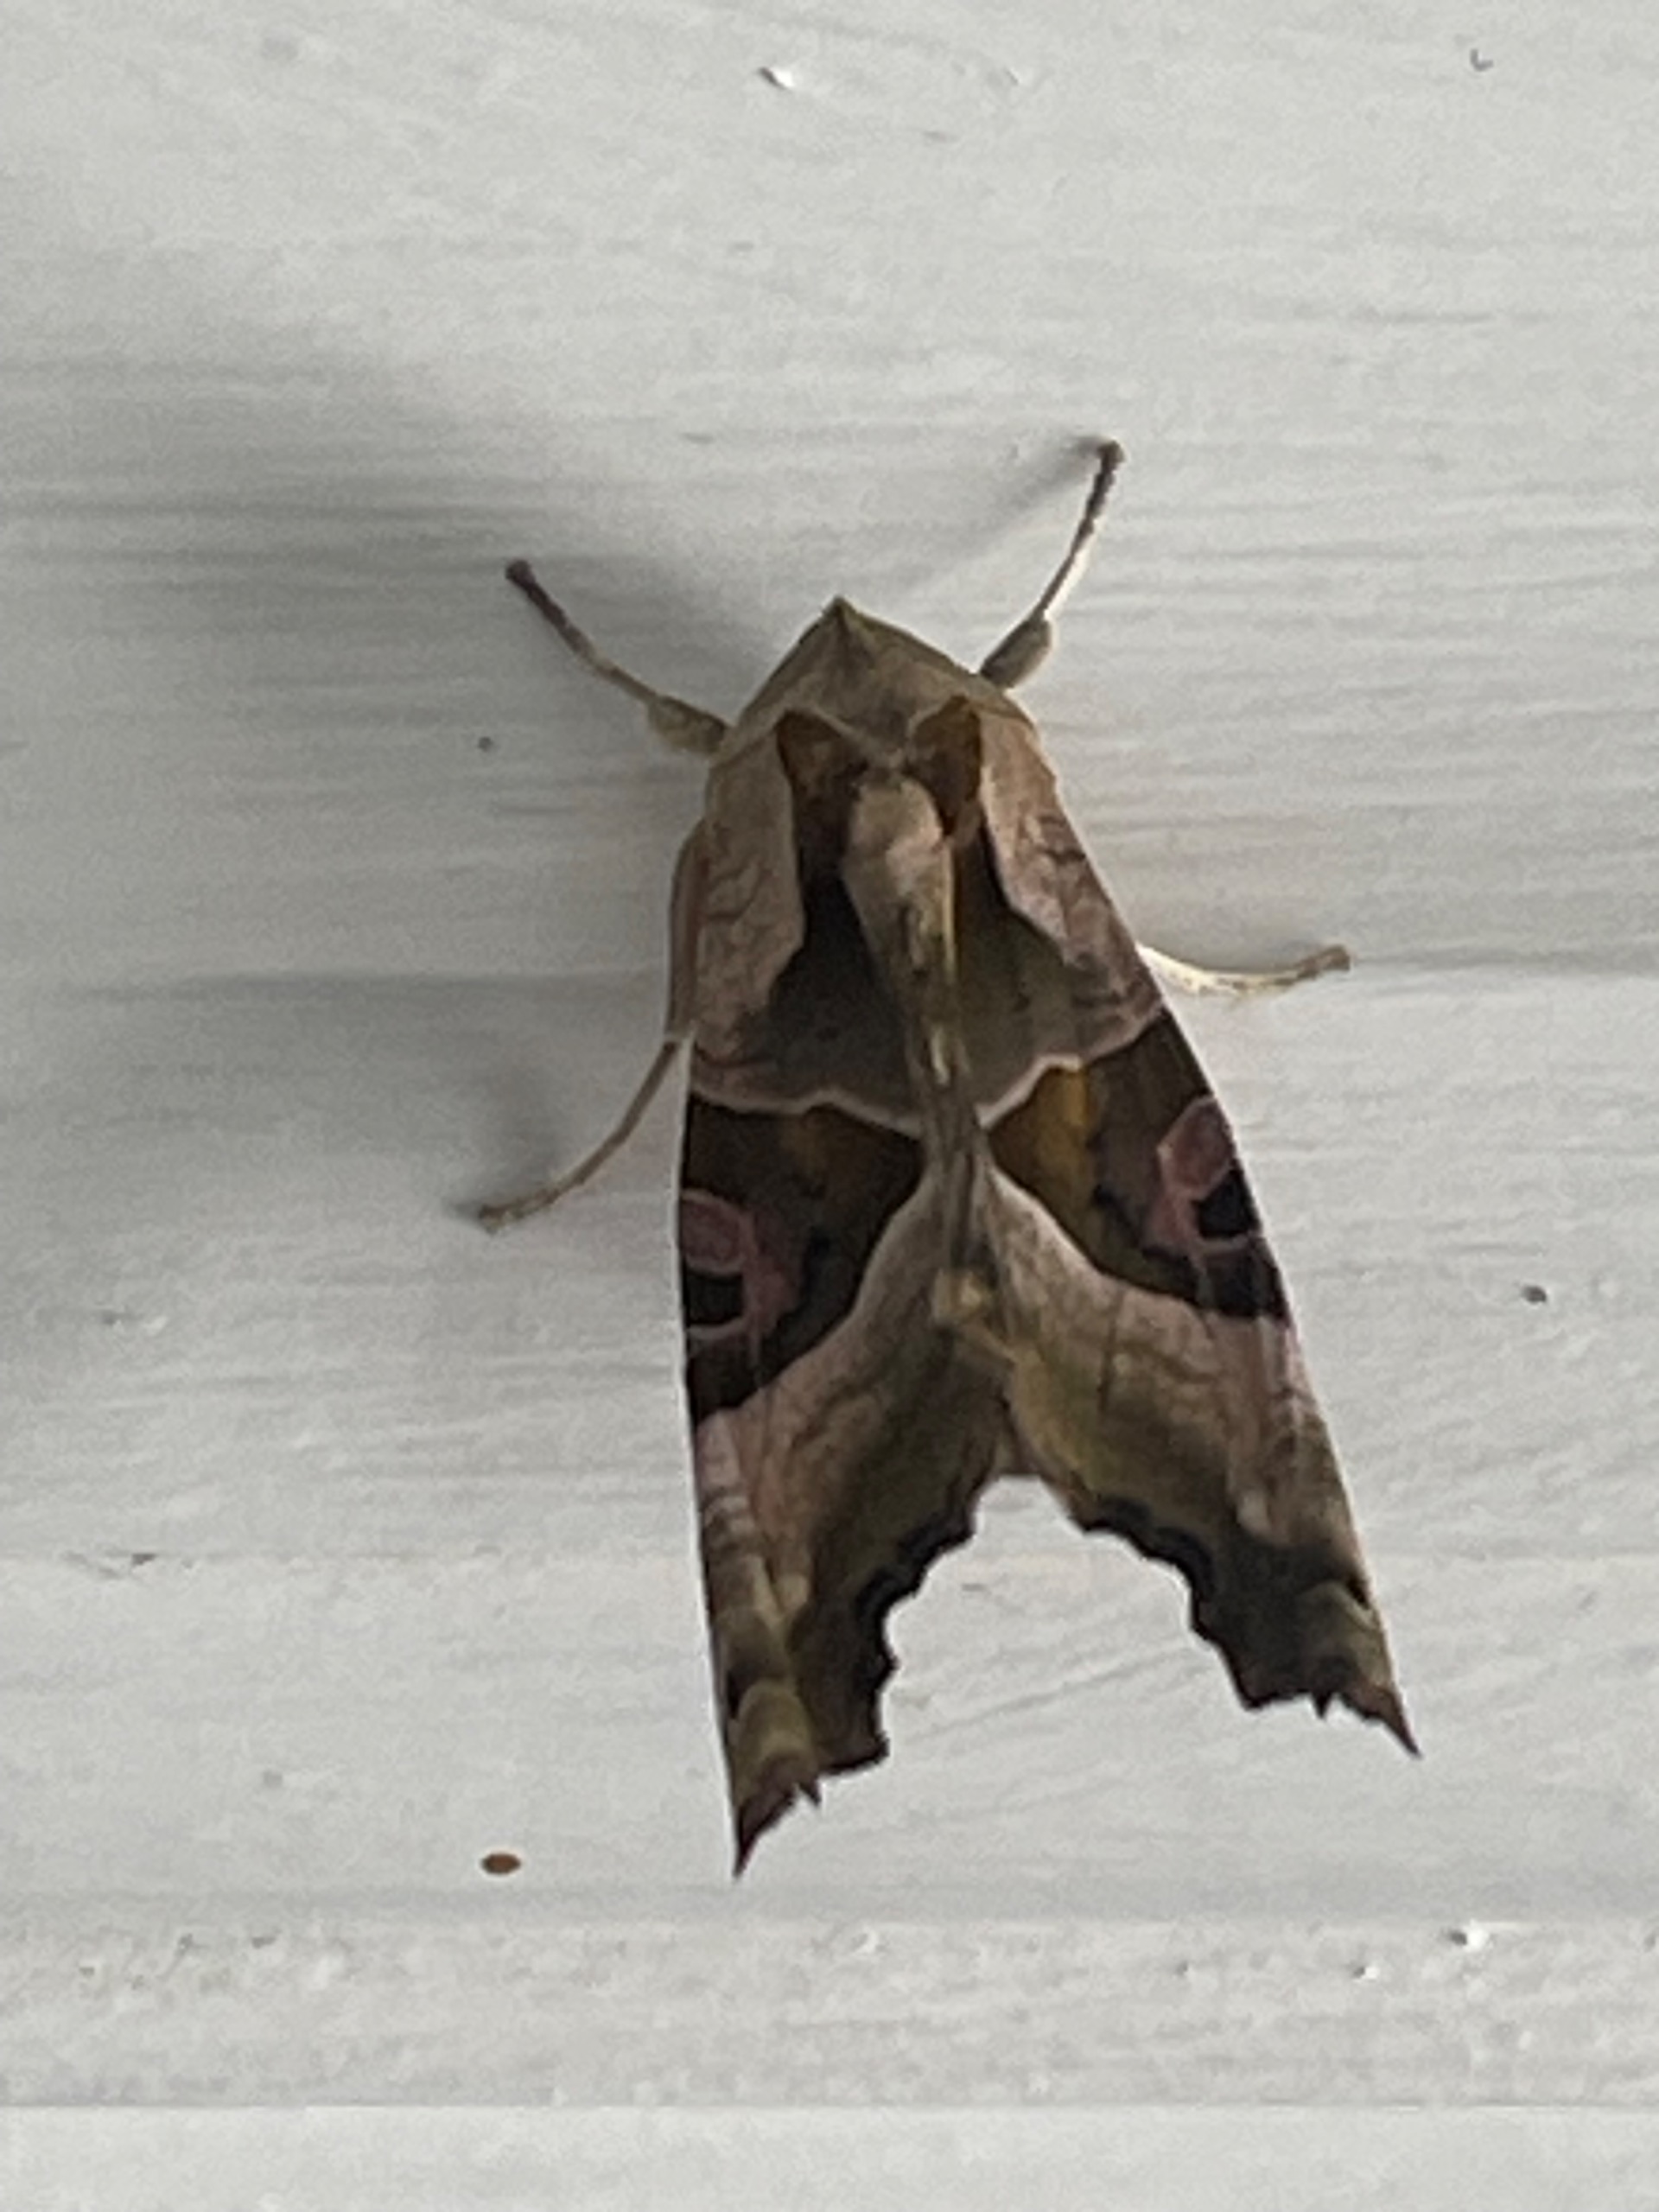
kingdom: Animalia
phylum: Arthropoda
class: Insecta
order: Lepidoptera
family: Noctuidae
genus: Phlogophora
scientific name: Phlogophora meticulosa
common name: Agatugle
